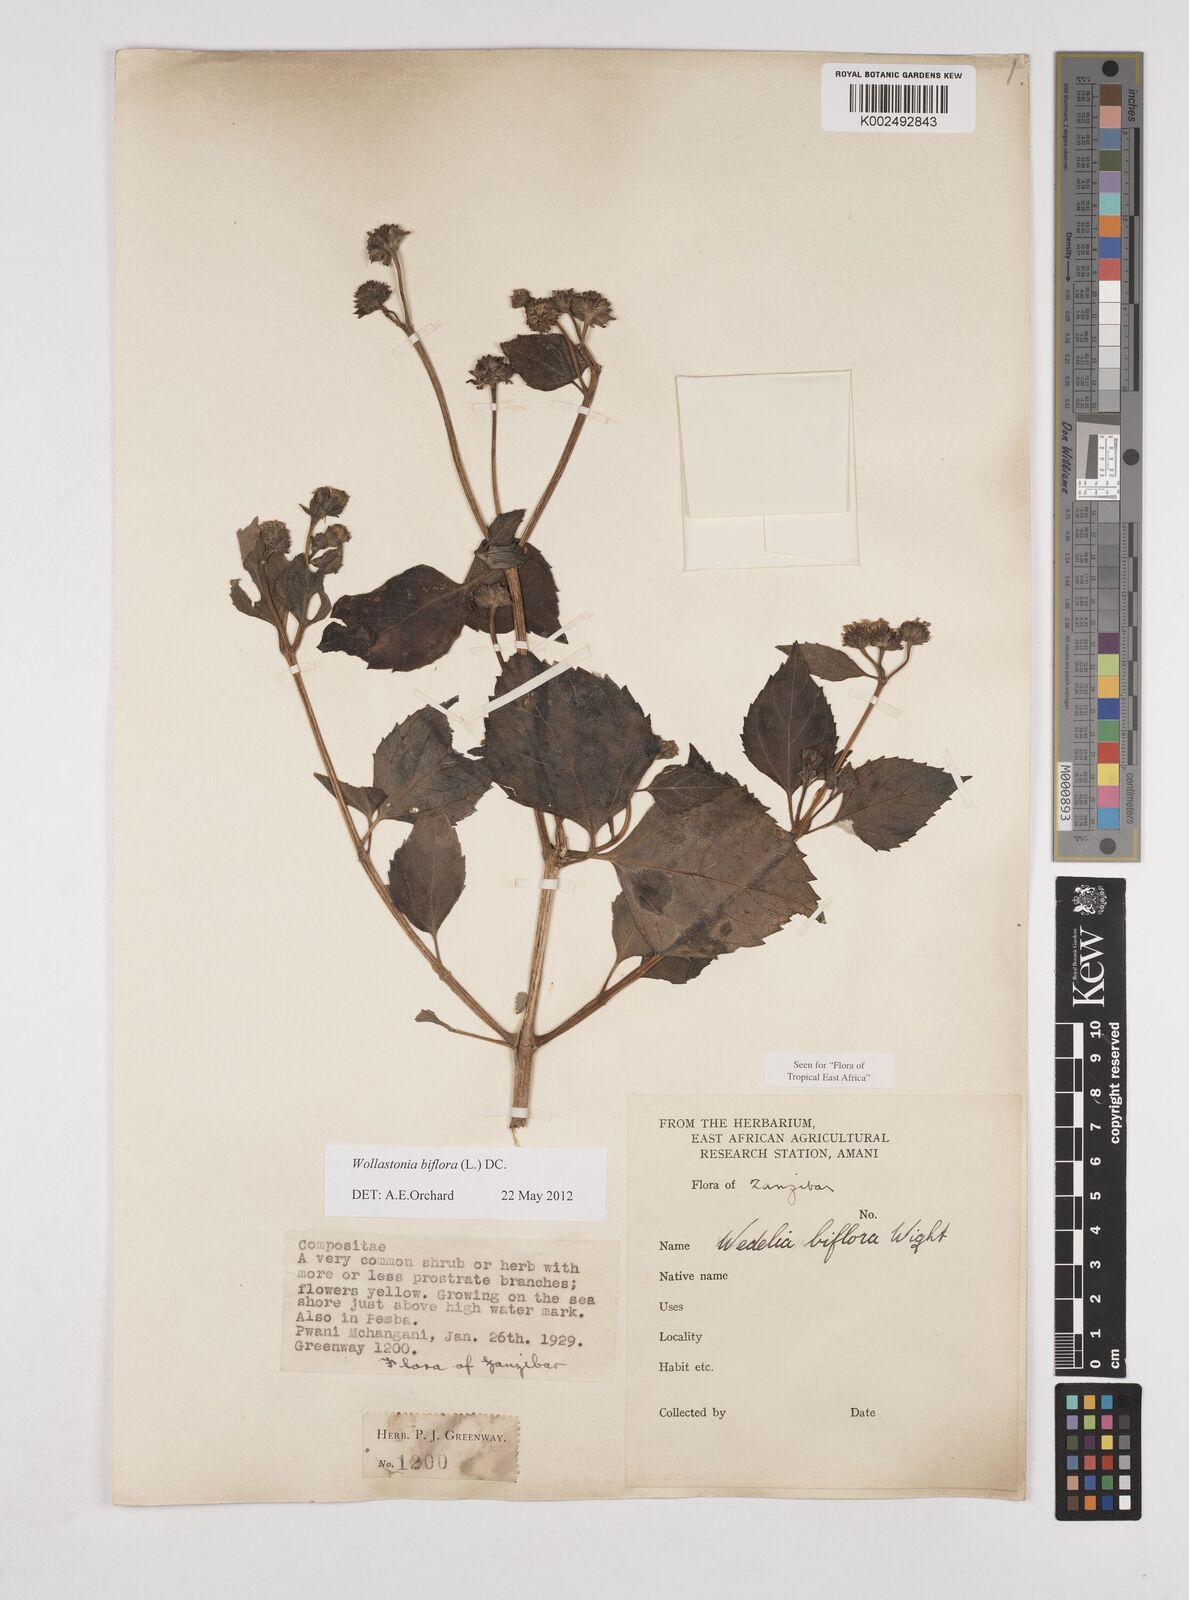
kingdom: Plantae
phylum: Tracheophyta
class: Magnoliopsida
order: Asterales
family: Asteraceae
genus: Wollastonia
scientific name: Wollastonia biflora
